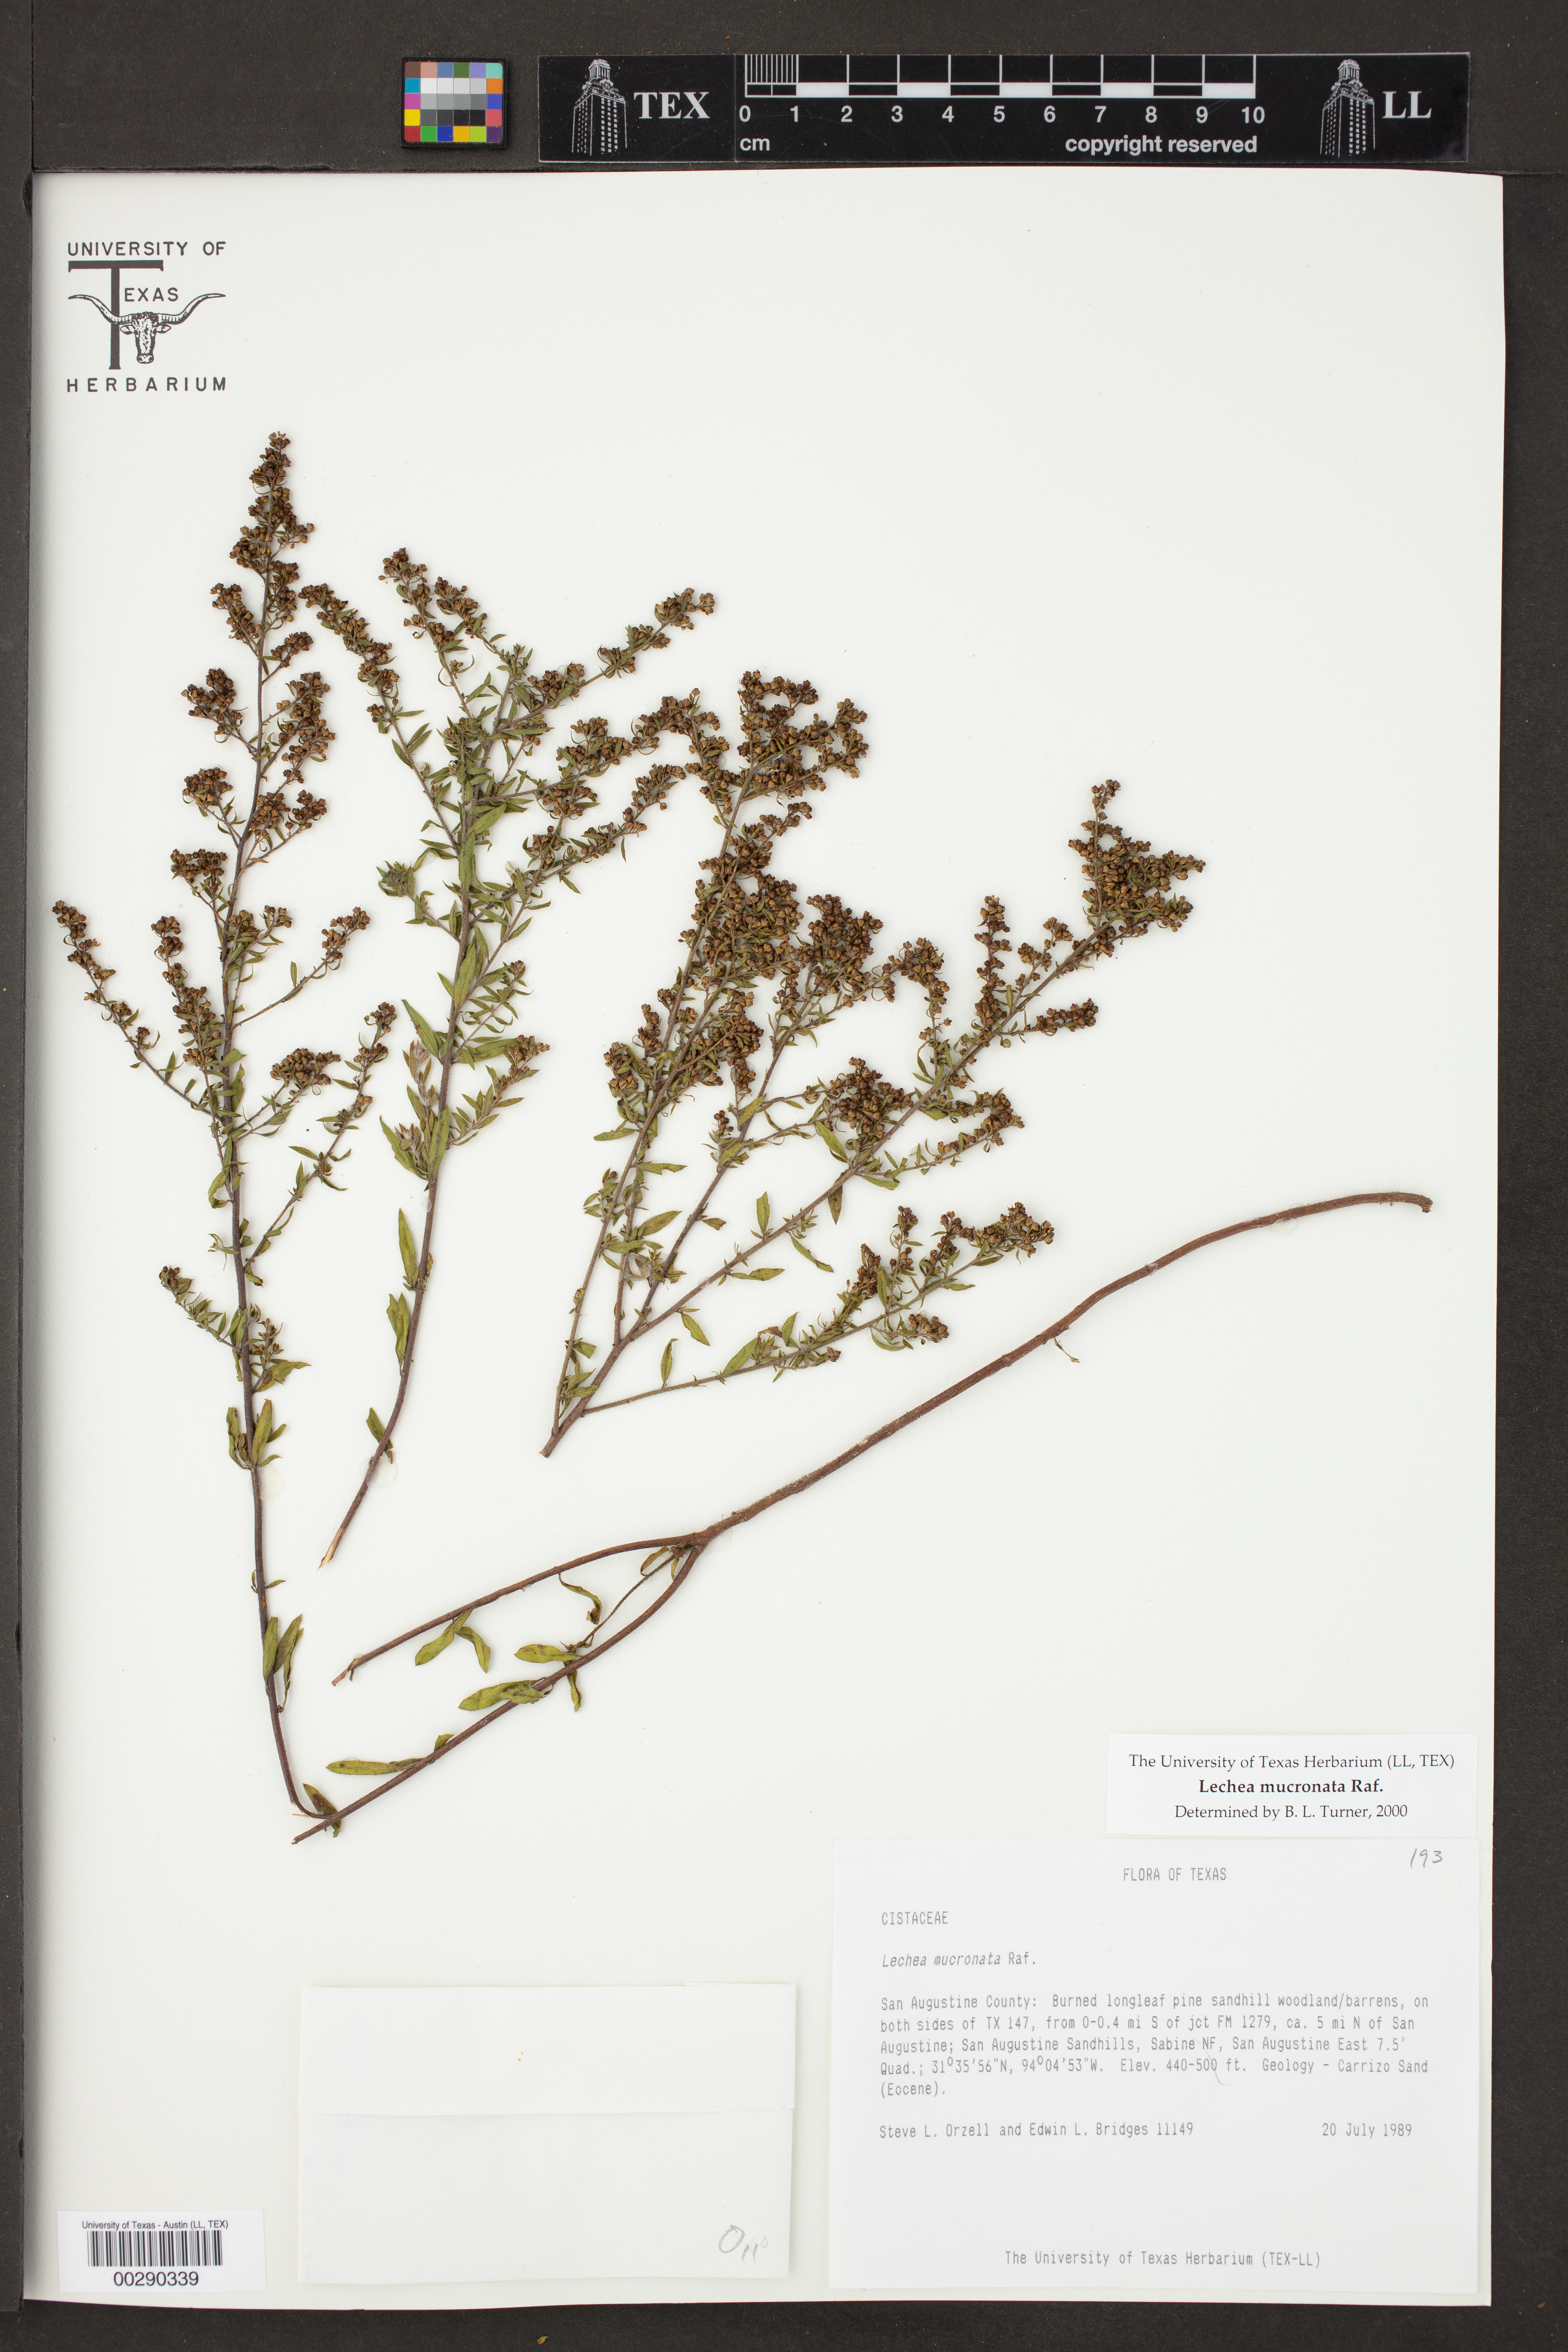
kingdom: Plantae
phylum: Tracheophyta
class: Magnoliopsida
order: Malvales
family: Cistaceae
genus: Lechea
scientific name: Lechea mucronata
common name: Hairy pinweed
